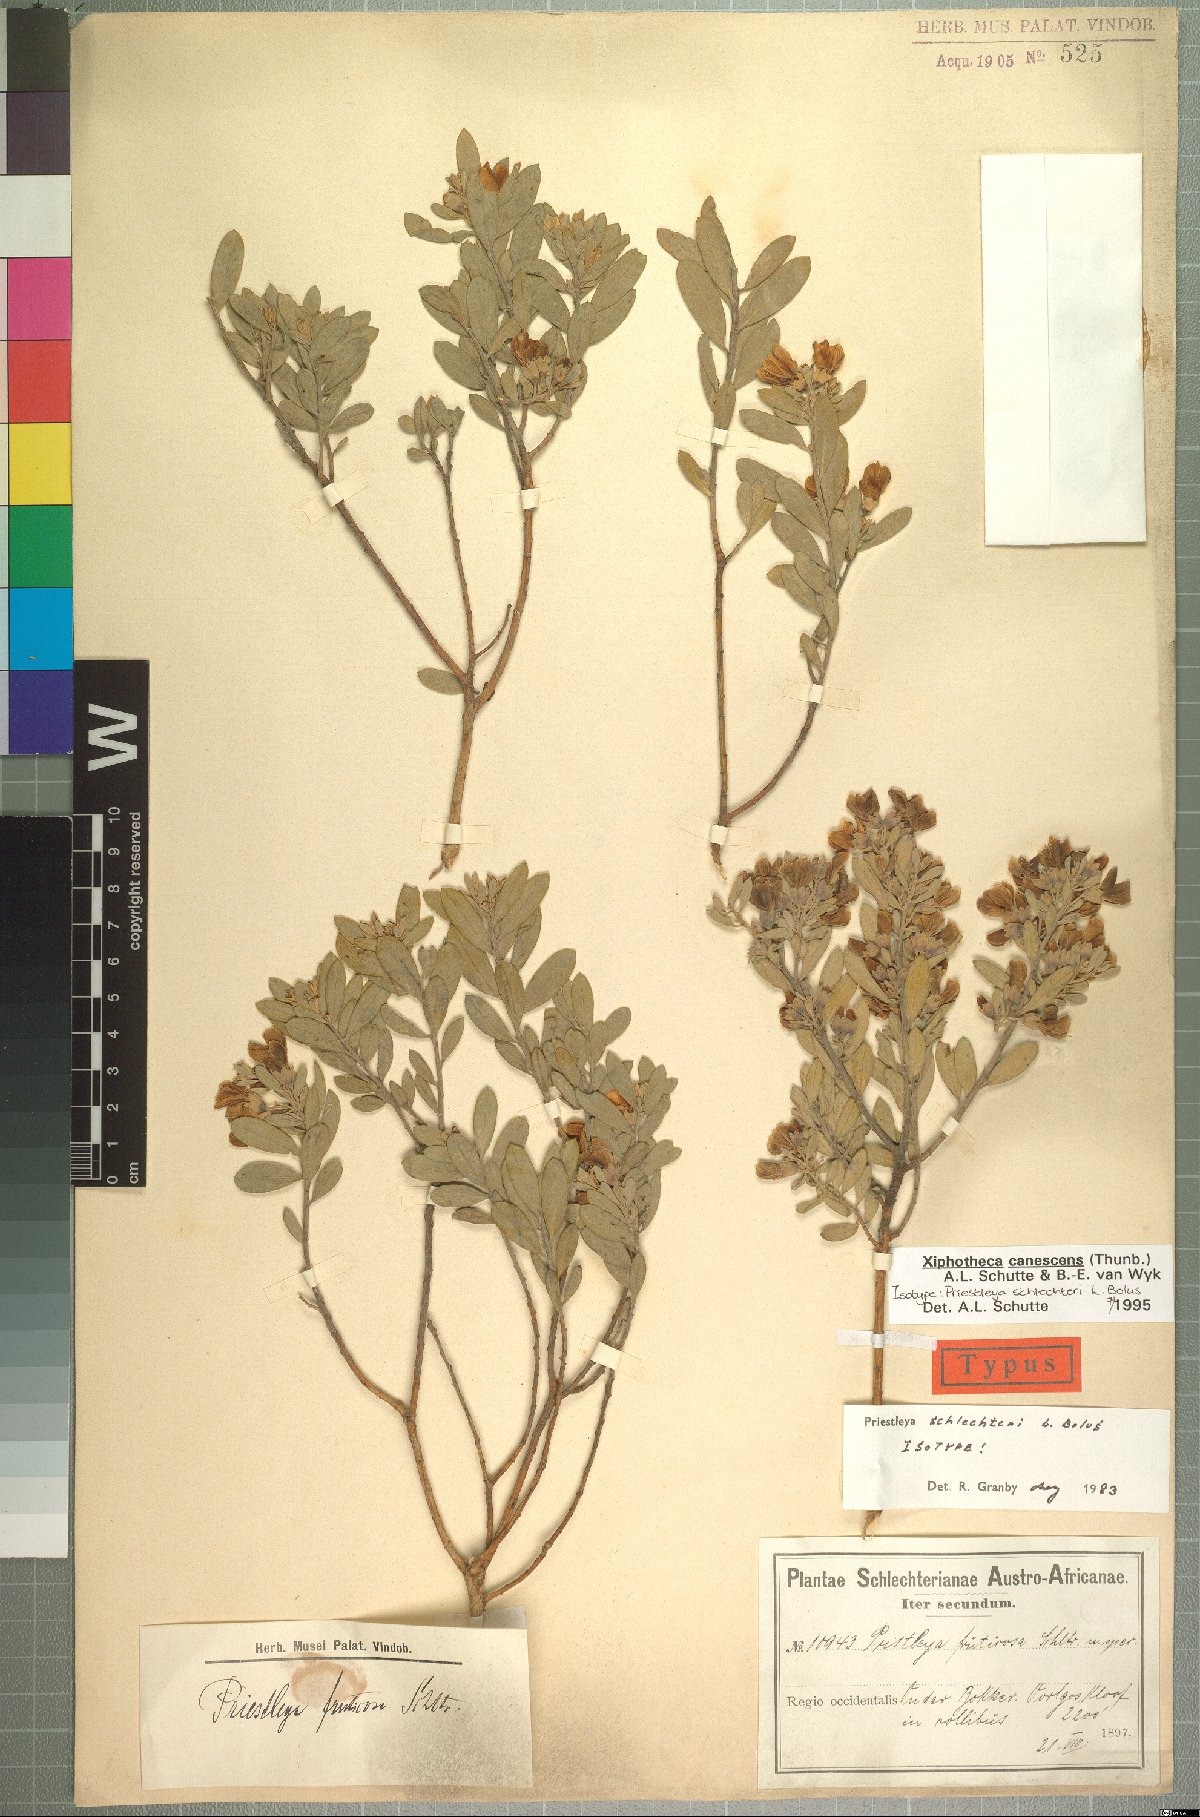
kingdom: Plantae
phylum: Tracheophyta
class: Magnoliopsida
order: Fabales
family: Fabaceae
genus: Xiphotheca
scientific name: Xiphotheca canescens
